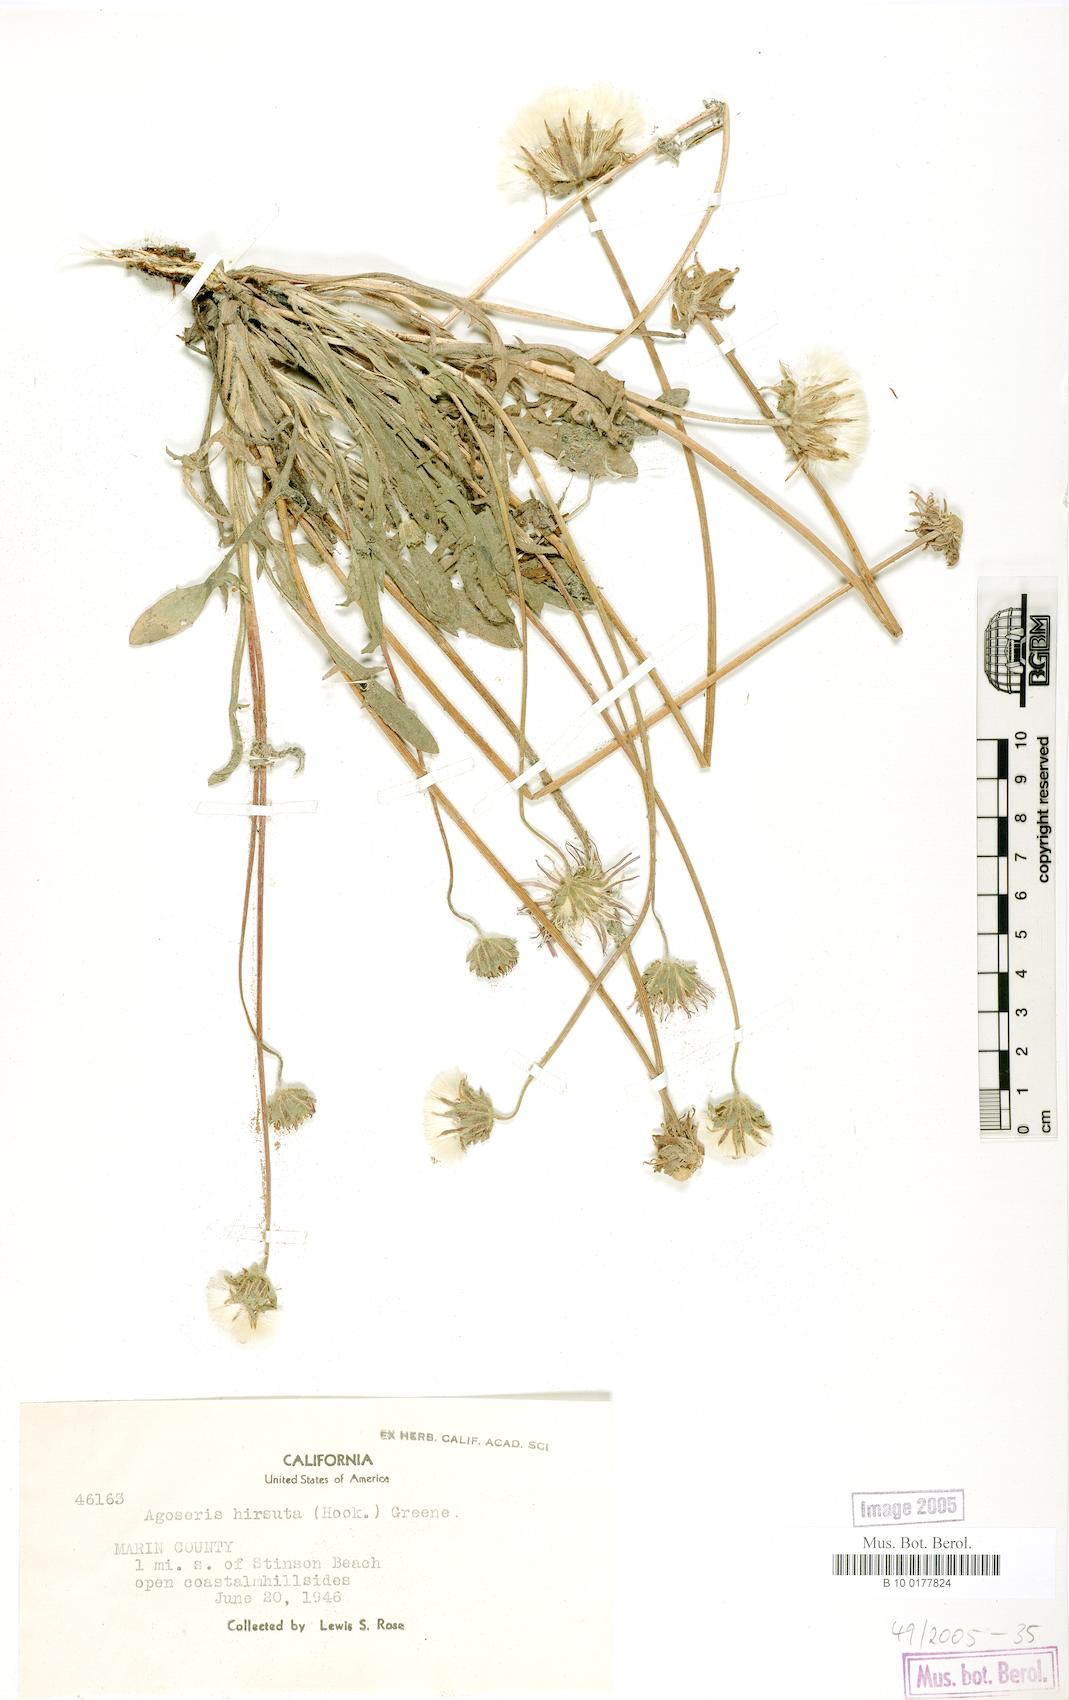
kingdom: Plantae
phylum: Tracheophyta
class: Magnoliopsida
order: Asterales
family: Asteraceae
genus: Agoseris
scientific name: Agoseris hirsuta
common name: Coast range agoseris
